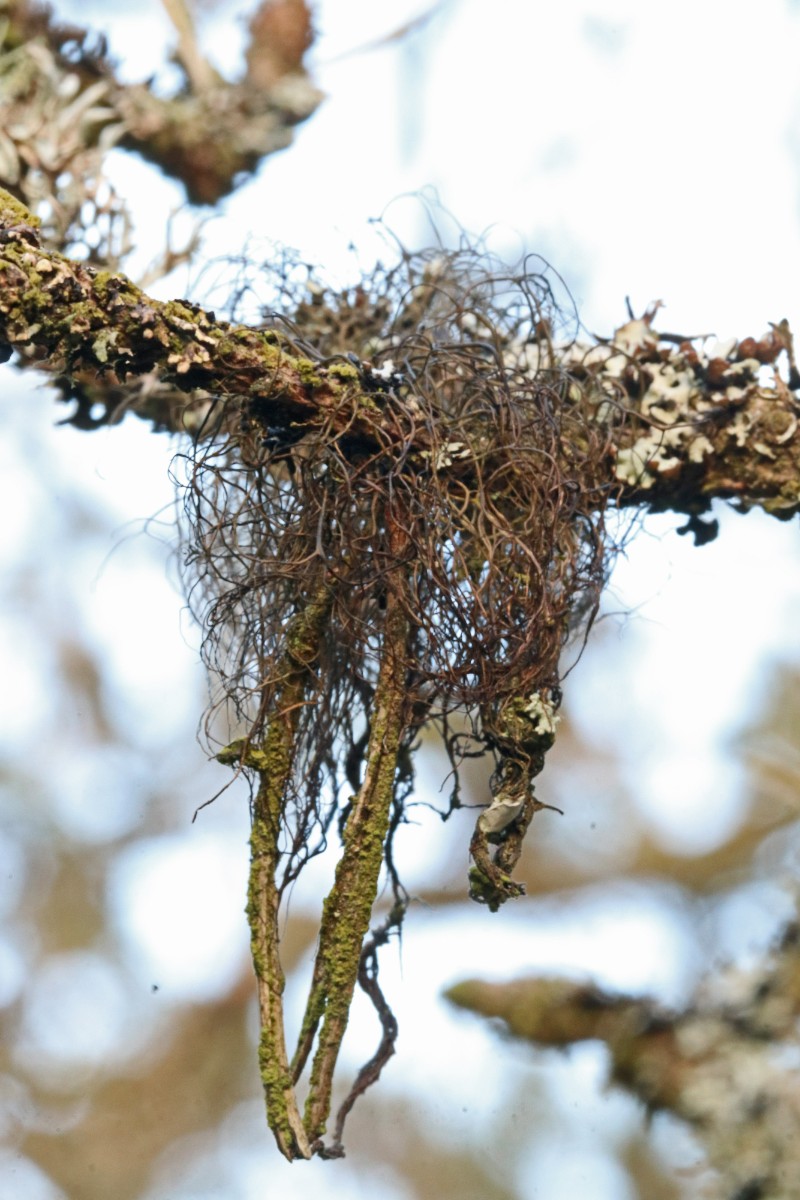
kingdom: Fungi
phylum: Ascomycota
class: Lecanoromycetes
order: Lecanorales
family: Parmeliaceae
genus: Bryoria
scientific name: Bryoria fuscescens
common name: almindelig mankelav
